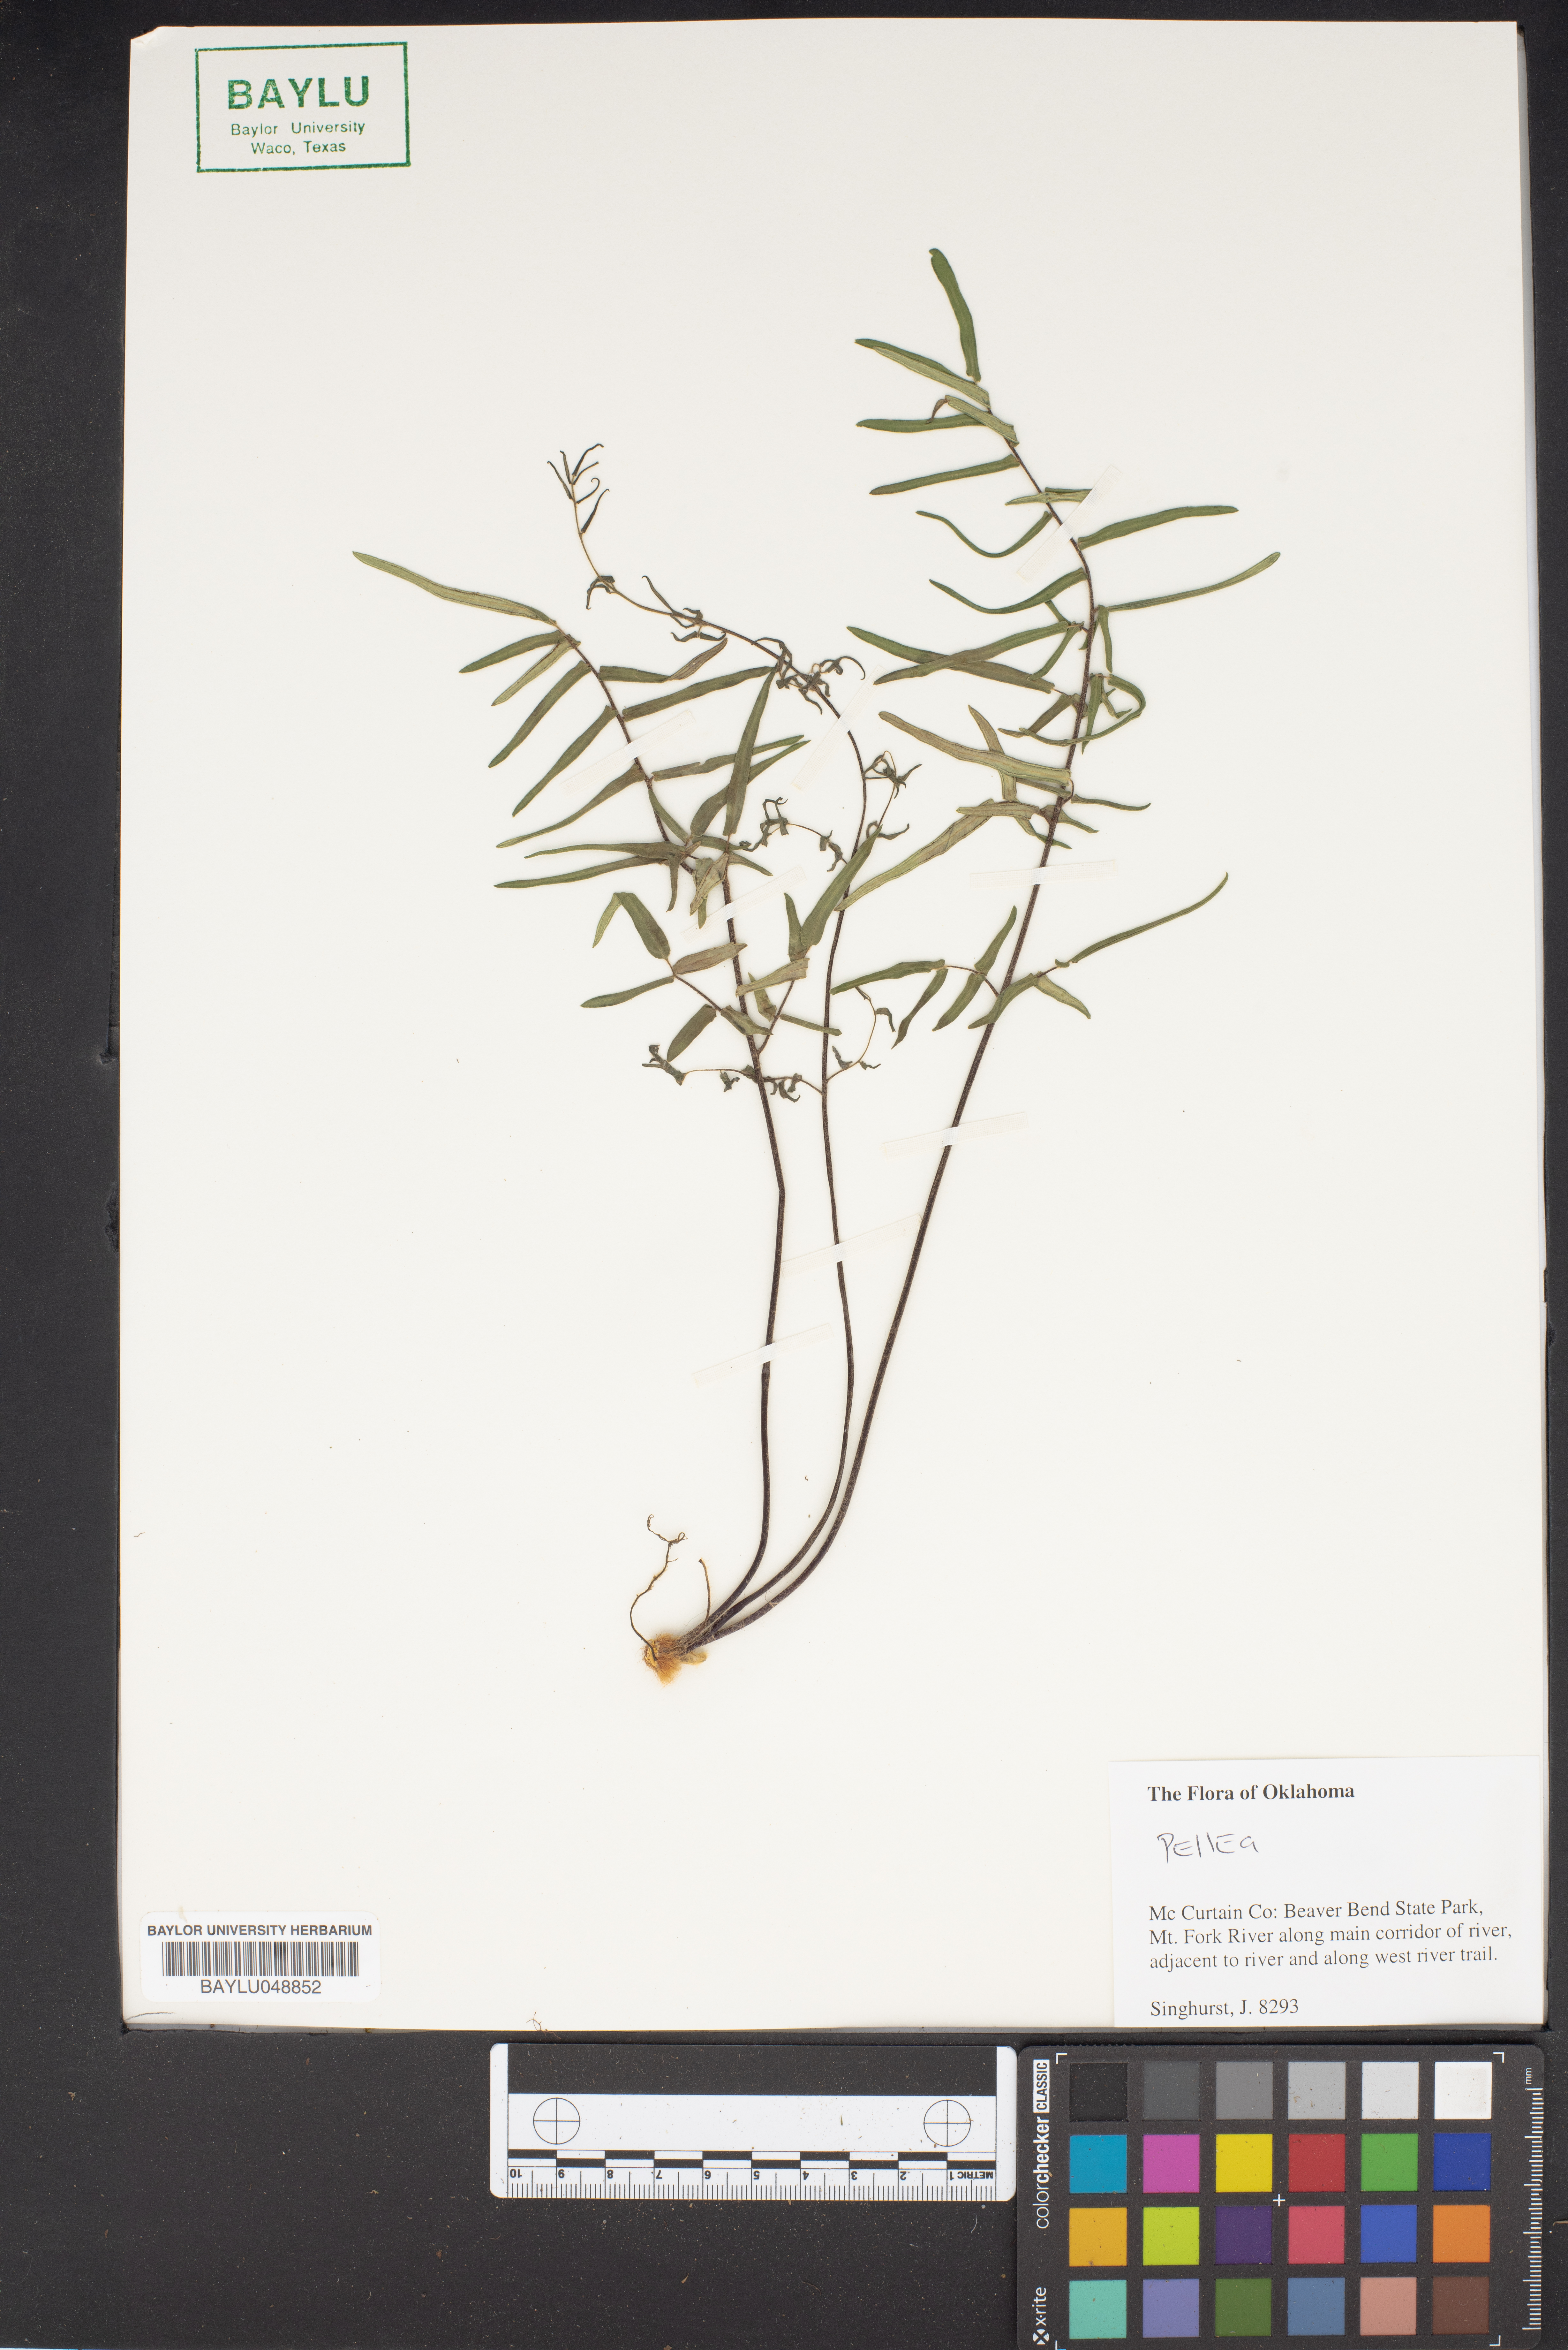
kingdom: Plantae
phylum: Tracheophyta
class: Polypodiopsida
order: Polypodiales
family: Pteridaceae
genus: Pellaea
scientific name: Pellaea
